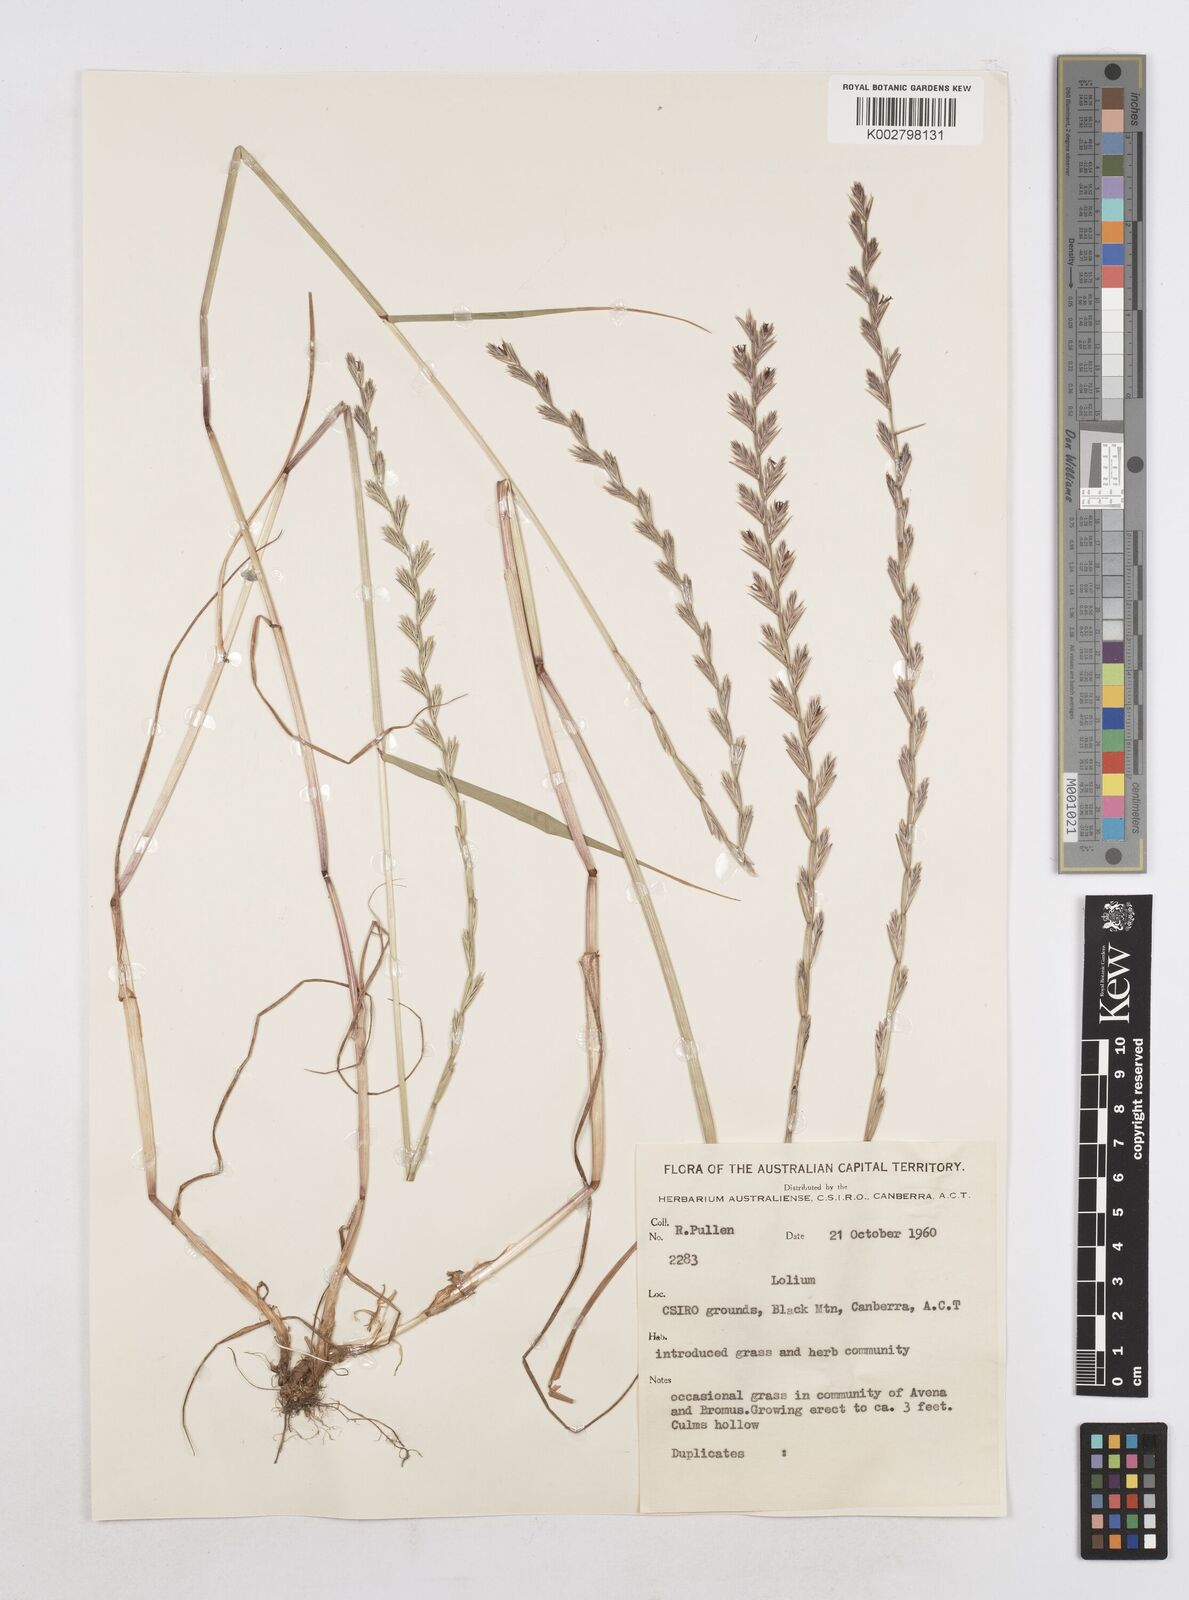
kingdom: Plantae
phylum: Tracheophyta
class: Liliopsida
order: Poales
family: Poaceae
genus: Lolium
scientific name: Lolium
